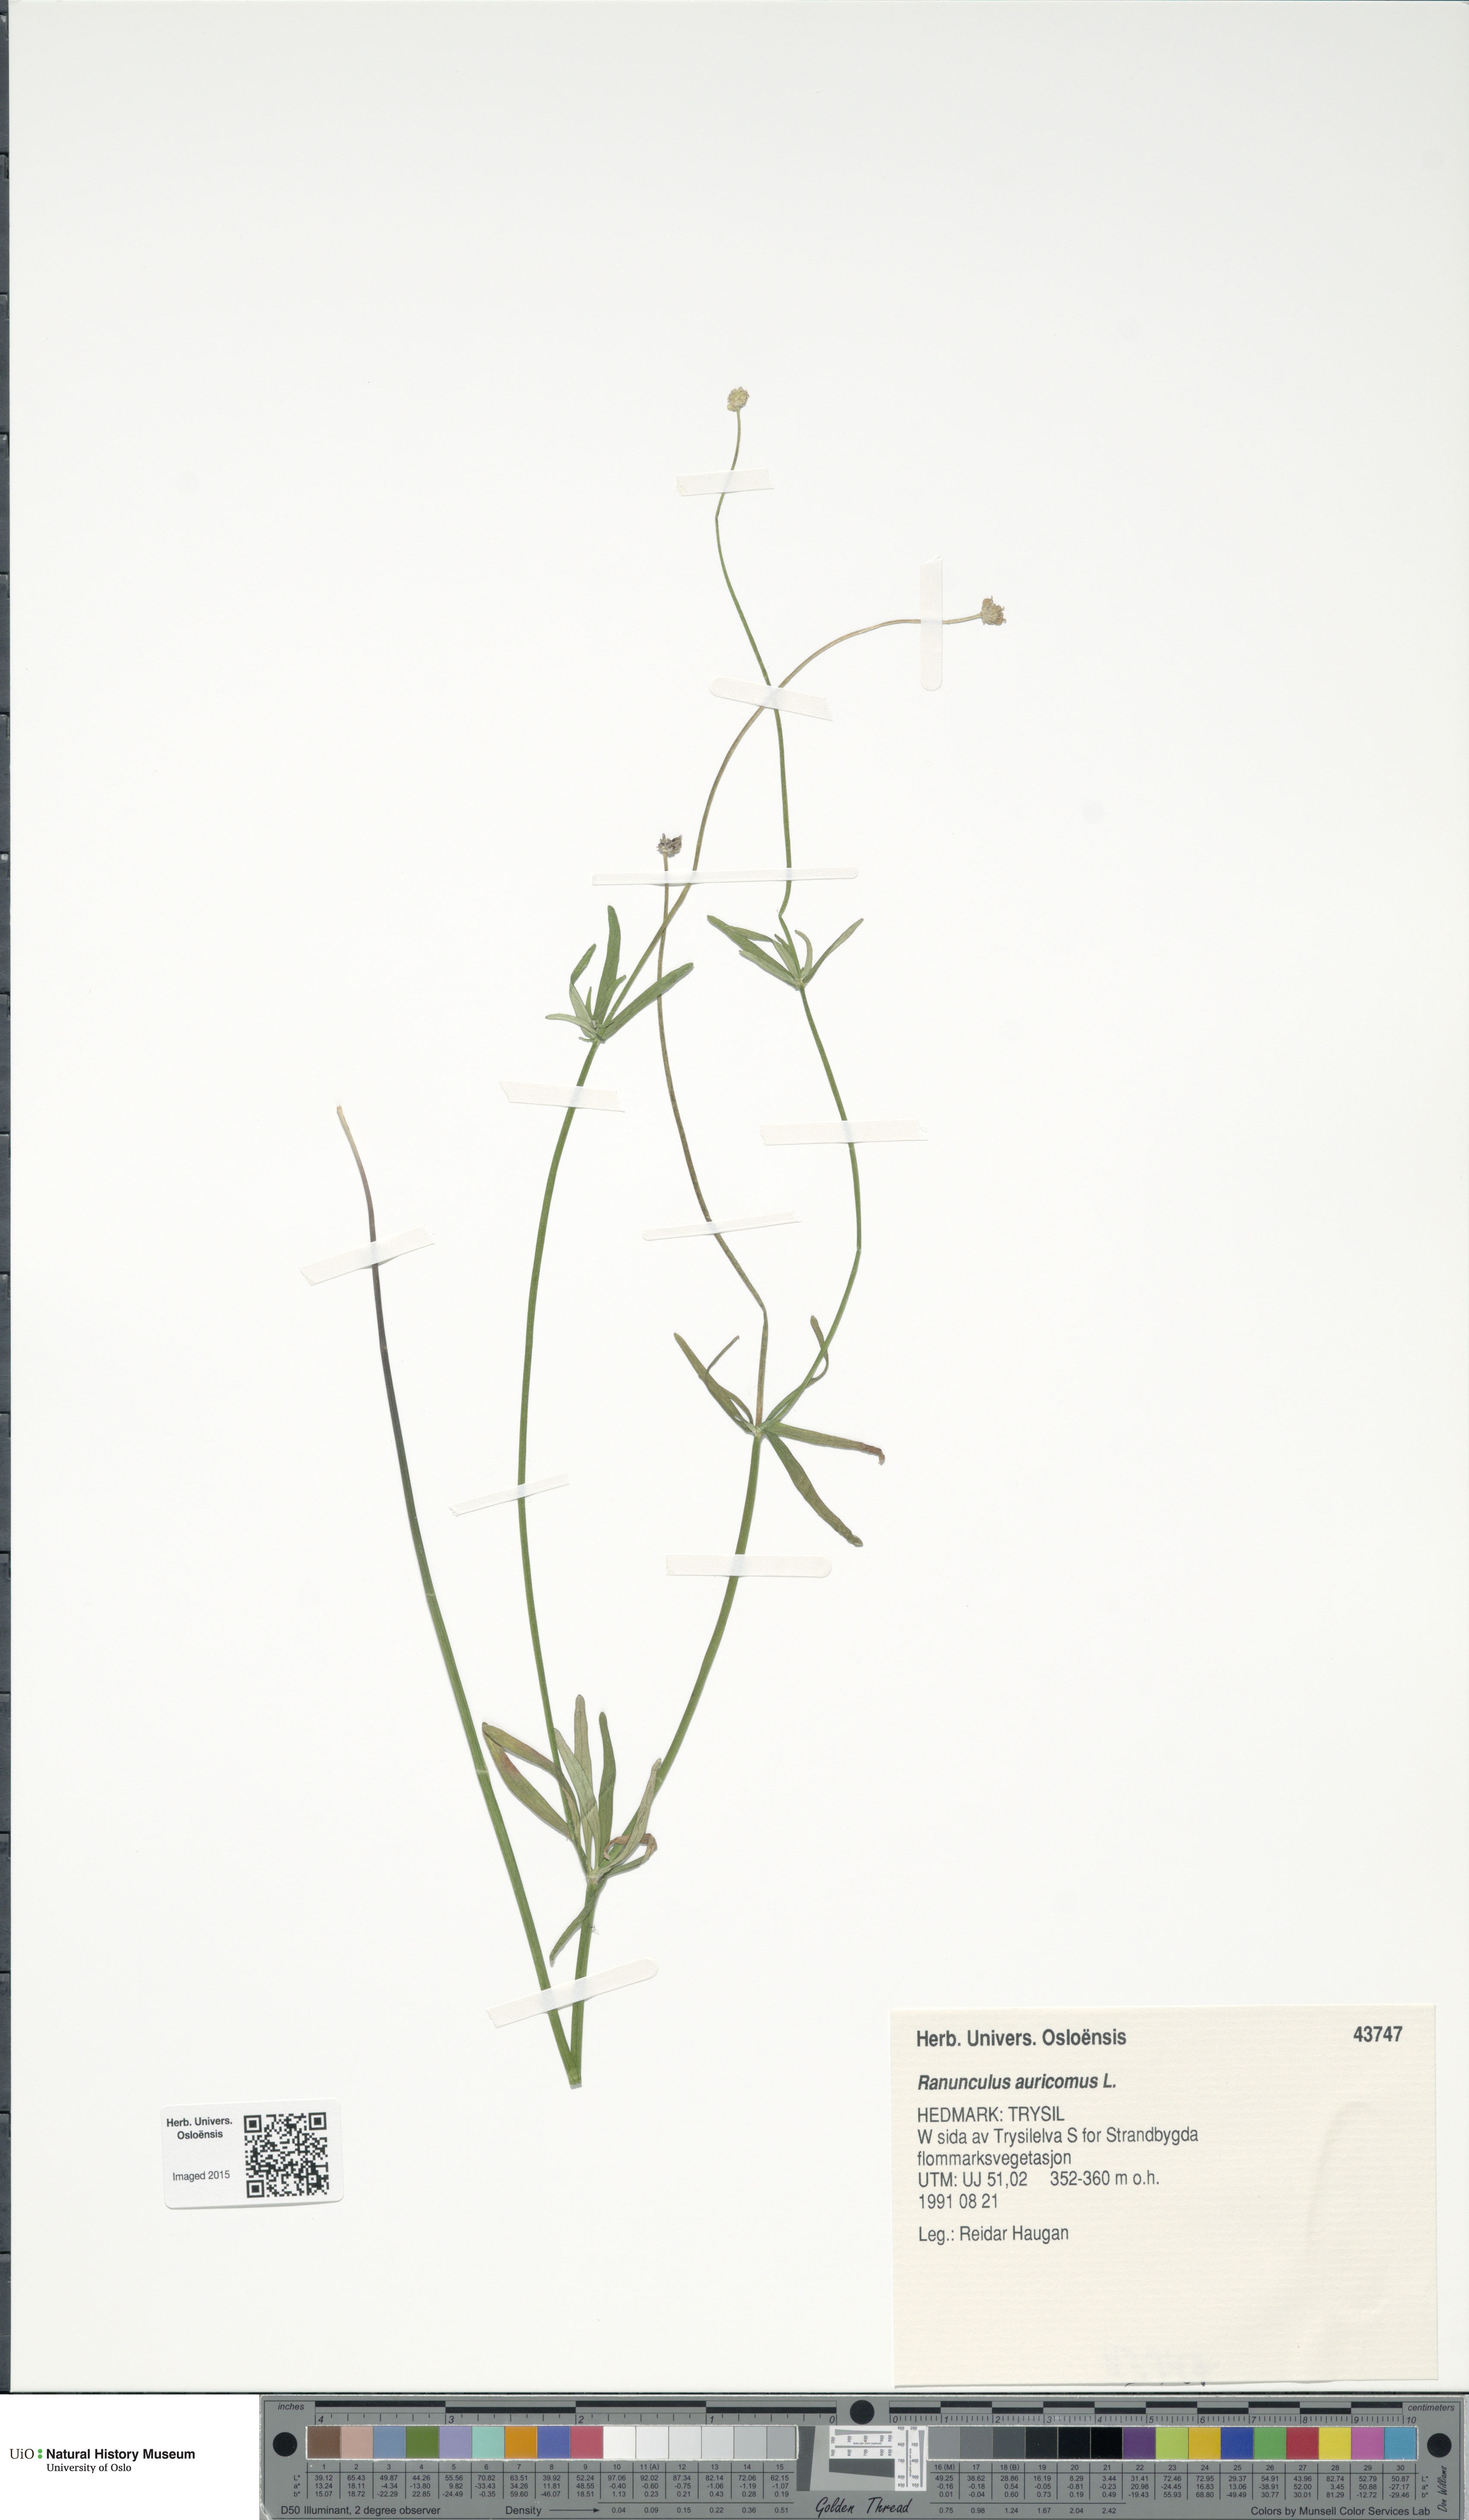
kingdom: Plantae
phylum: Tracheophyta
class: Magnoliopsida
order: Ranunculales
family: Ranunculaceae
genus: Ranunculus
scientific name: Ranunculus auricomus
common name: Goldilocks buttercup
